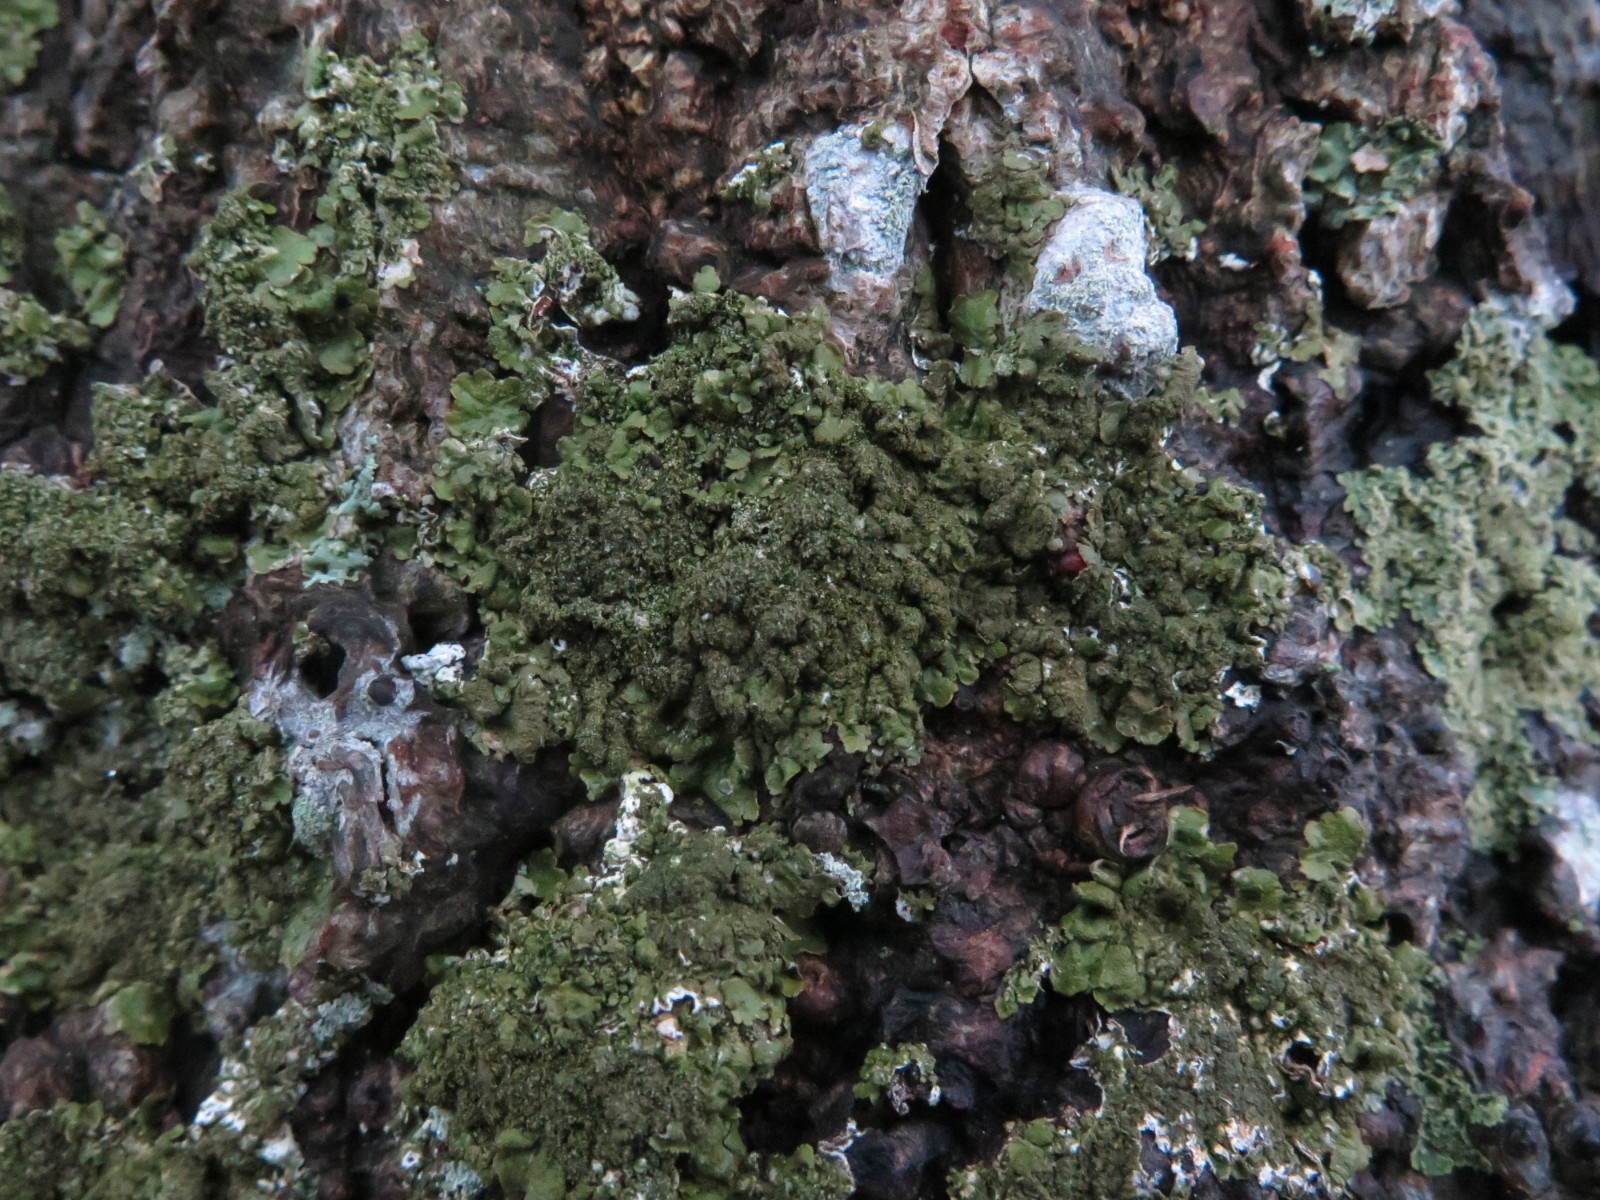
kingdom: Fungi
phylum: Ascomycota
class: Lecanoromycetes
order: Lecanorales
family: Parmeliaceae
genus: Melanelixia
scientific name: Melanelixia subaurifera
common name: guldpudret skållav
